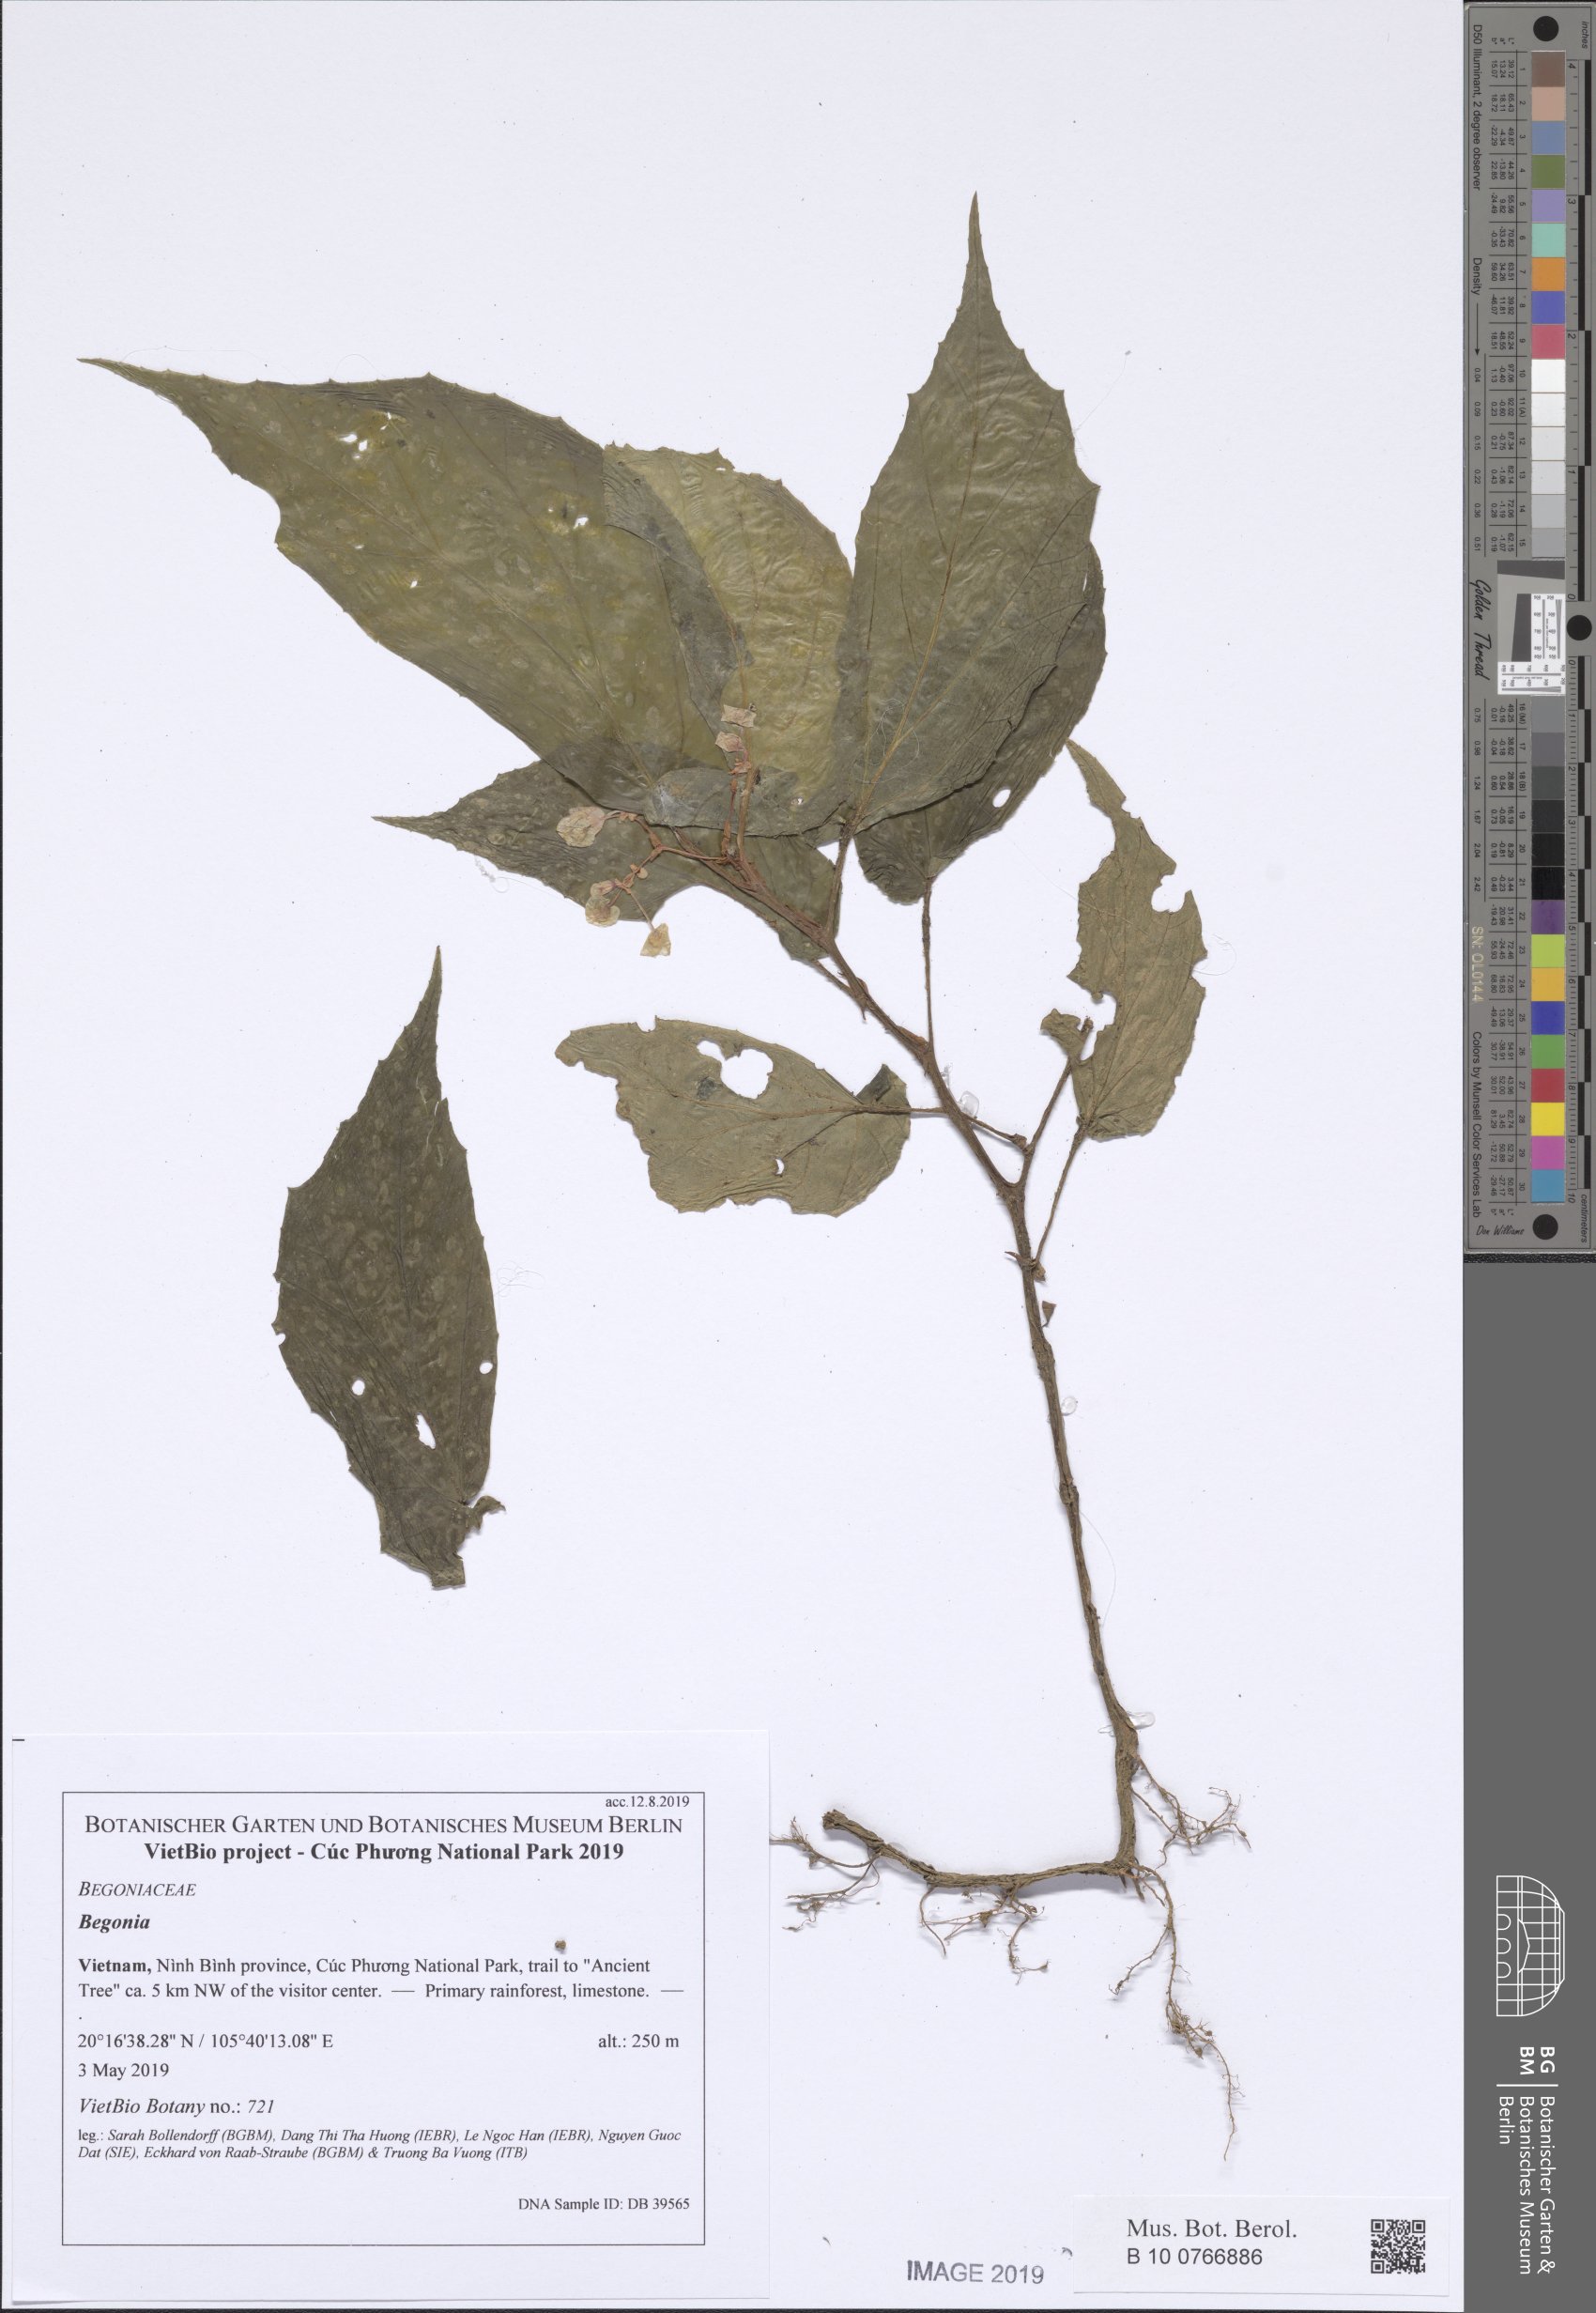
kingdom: Plantae
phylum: Tracheophyta
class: Magnoliopsida
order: Cucurbitales
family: Begoniaceae
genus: Begonia
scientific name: Begonia cucphuongensis
